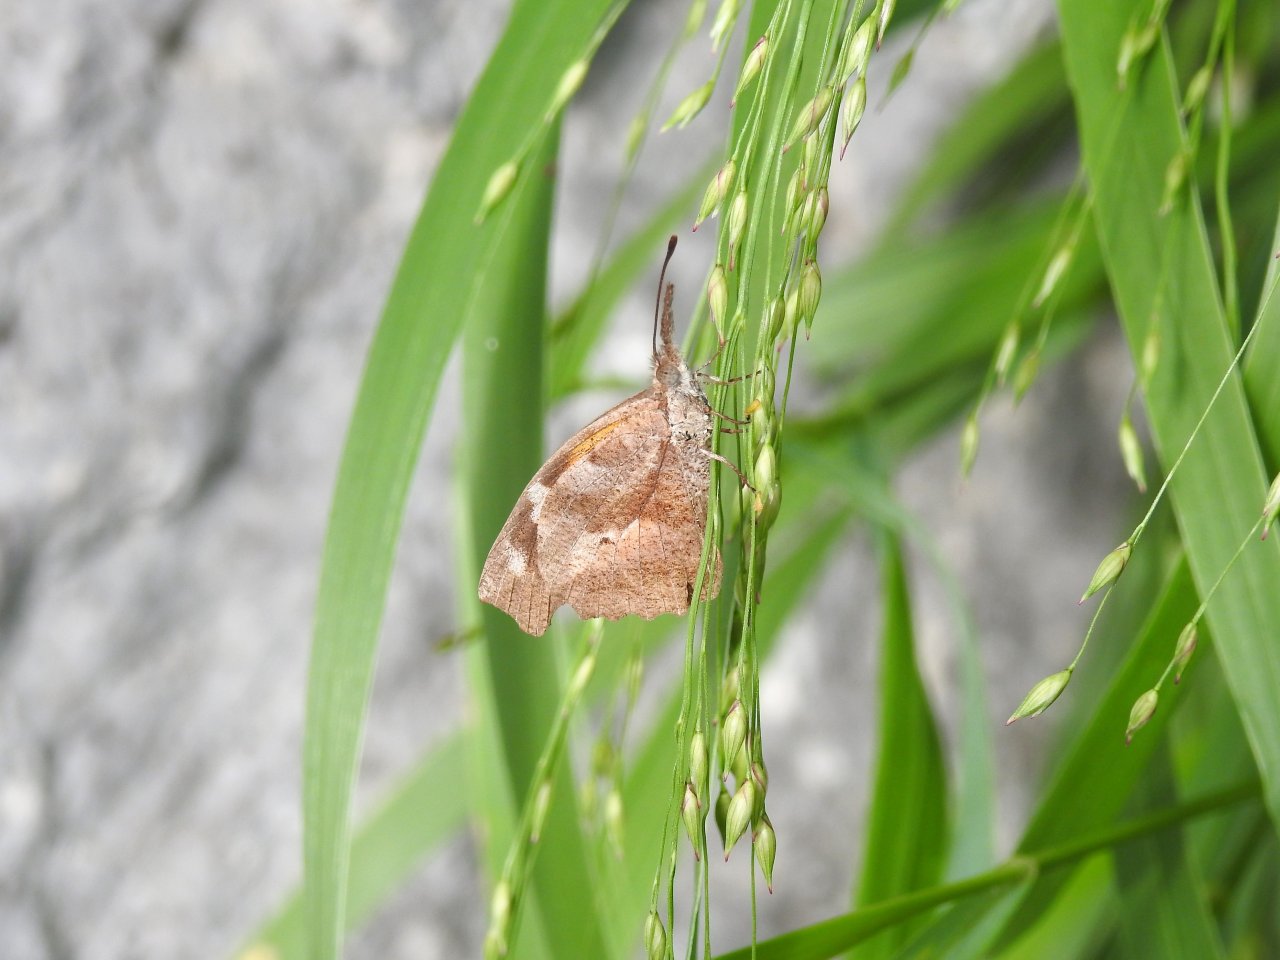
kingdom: Animalia
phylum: Arthropoda
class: Insecta
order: Lepidoptera
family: Nymphalidae
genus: Libytheana
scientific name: Libytheana carinenta
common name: American Snout
